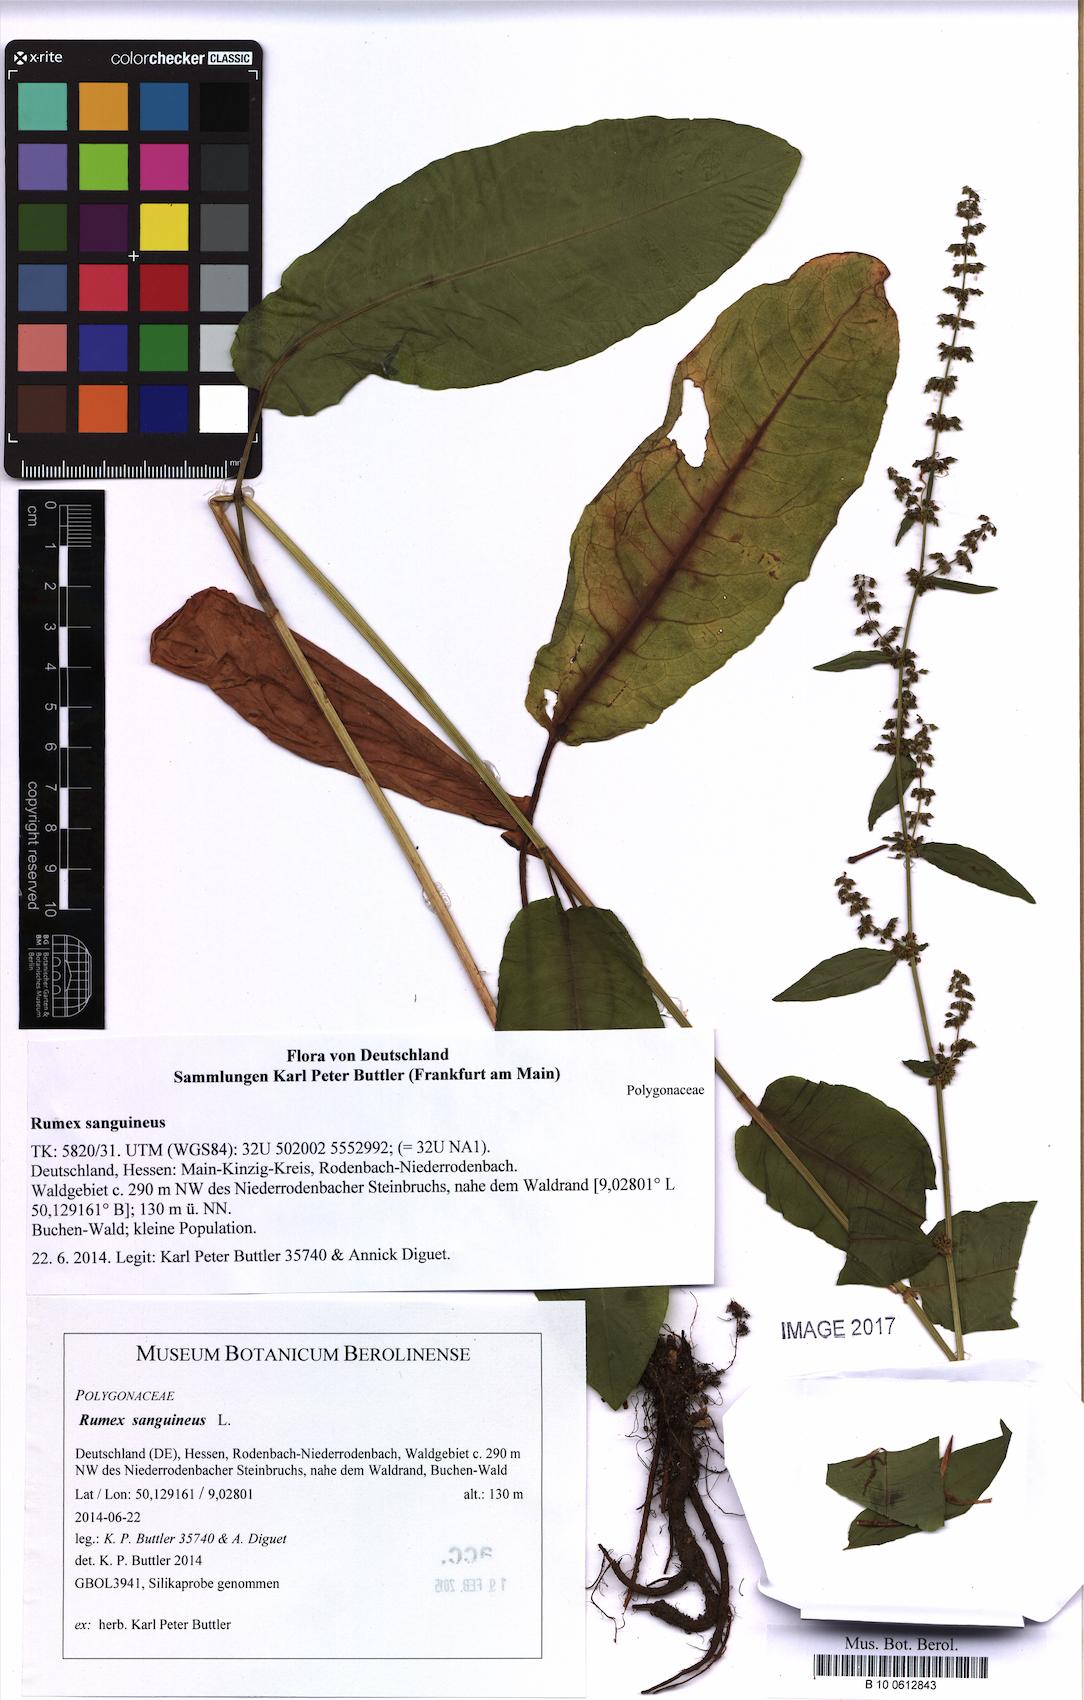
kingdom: Plantae
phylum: Tracheophyta
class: Magnoliopsida
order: Caryophyllales
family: Polygonaceae
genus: Rumex
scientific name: Rumex sanguineus
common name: Wood dock
